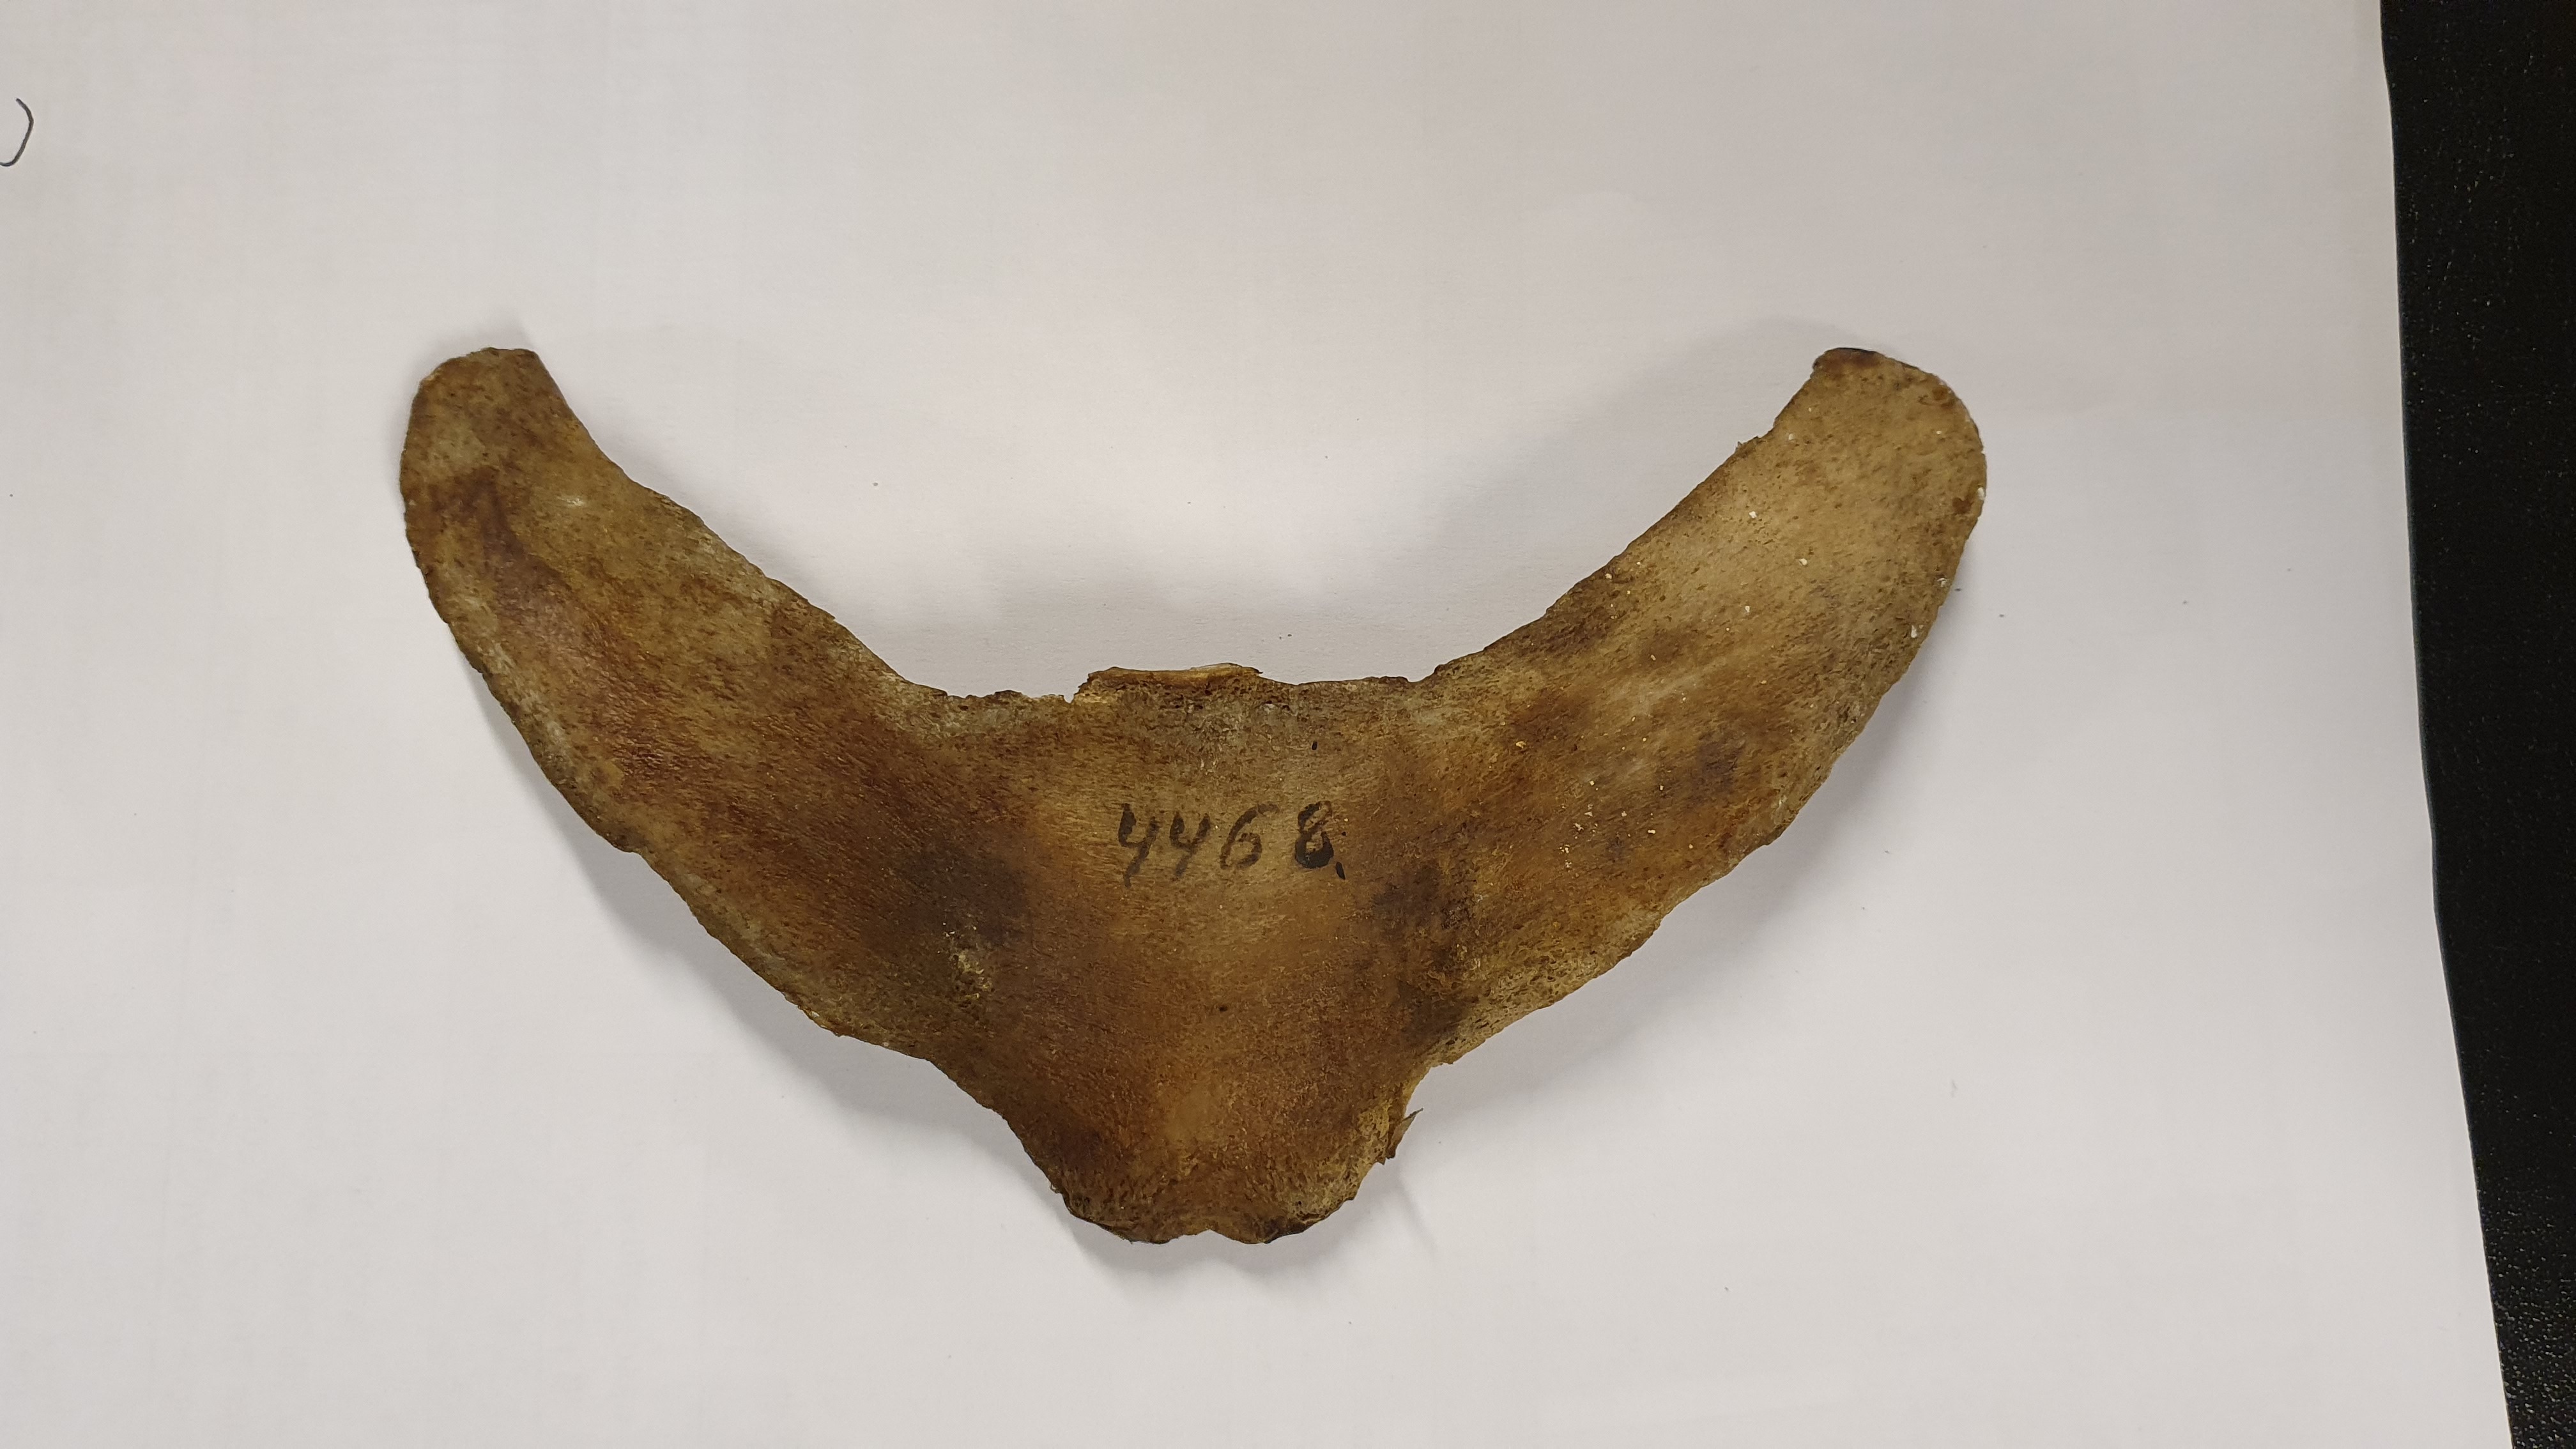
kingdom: Animalia
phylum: Chordata
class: Mammalia
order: Cetacea
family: Delphinidae
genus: Lagenorhynchus
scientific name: Lagenorhynchus acutus
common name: Atlantic white-sided dolphin
